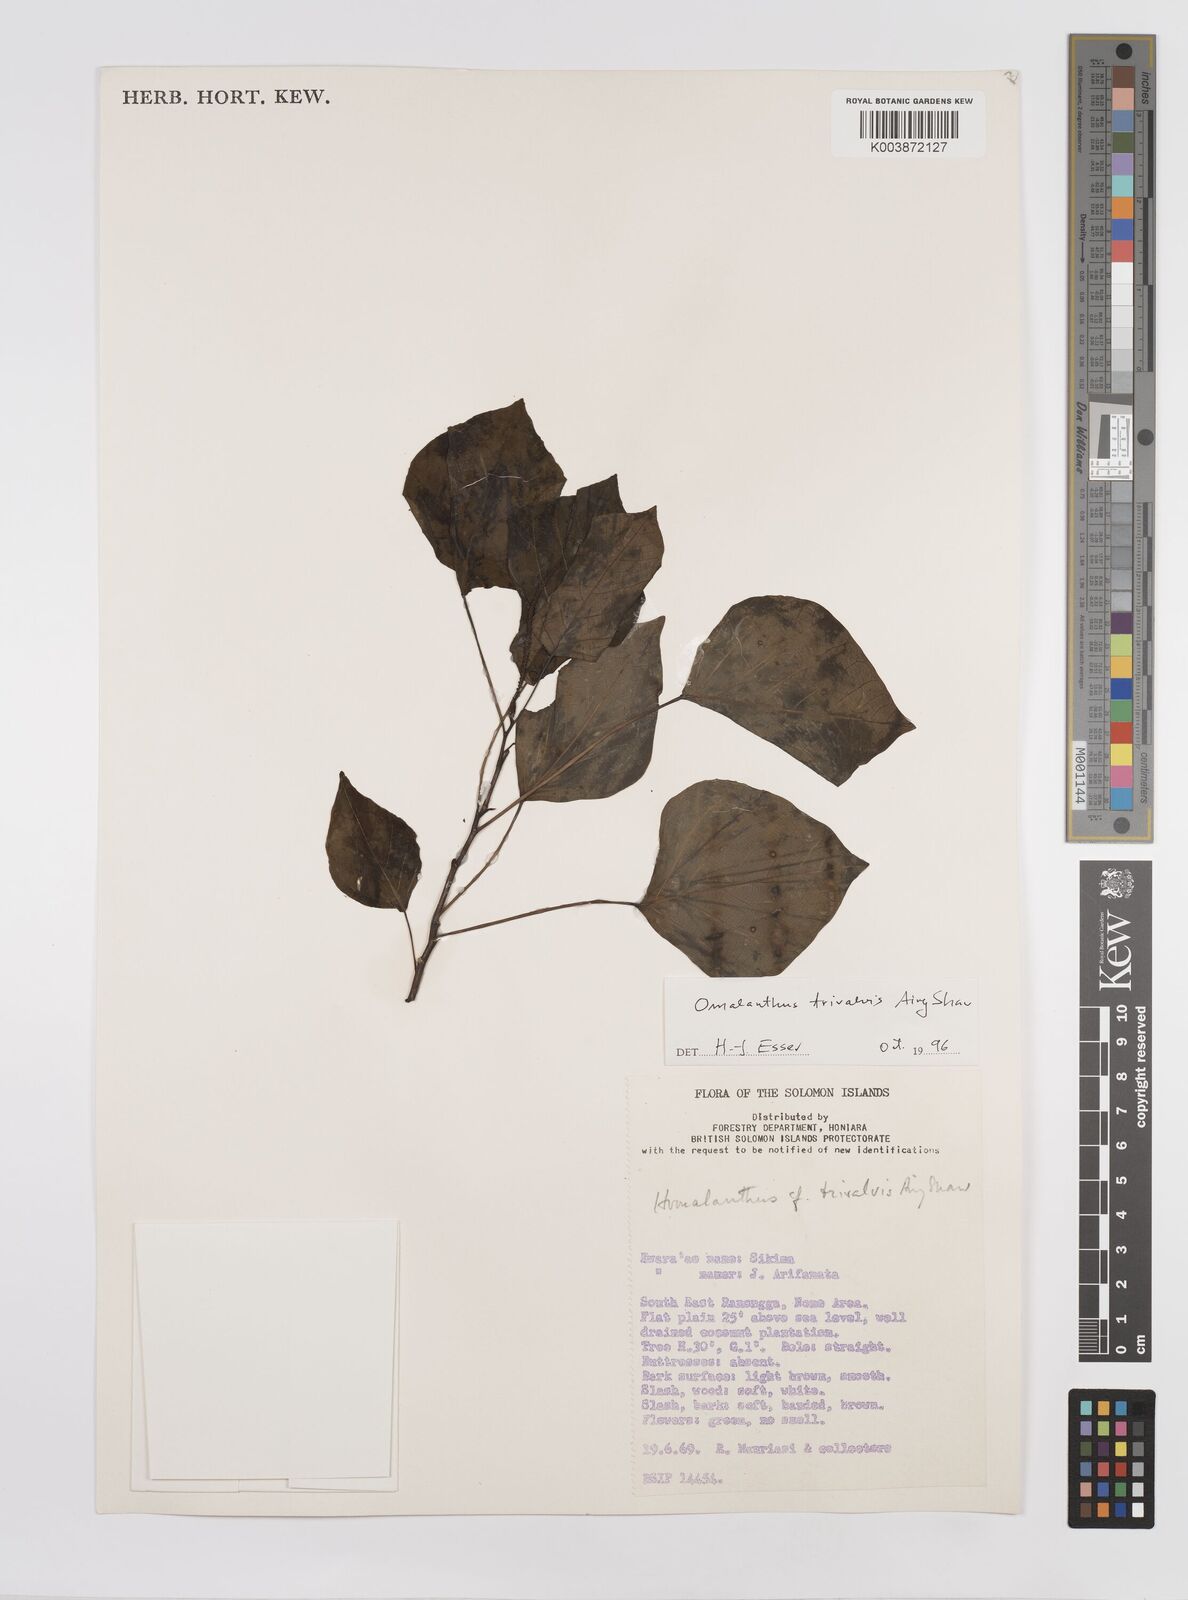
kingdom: Plantae
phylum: Tracheophyta
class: Magnoliopsida
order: Malpighiales
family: Euphorbiaceae
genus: Homalanthus
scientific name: Homalanthus trivalvis
